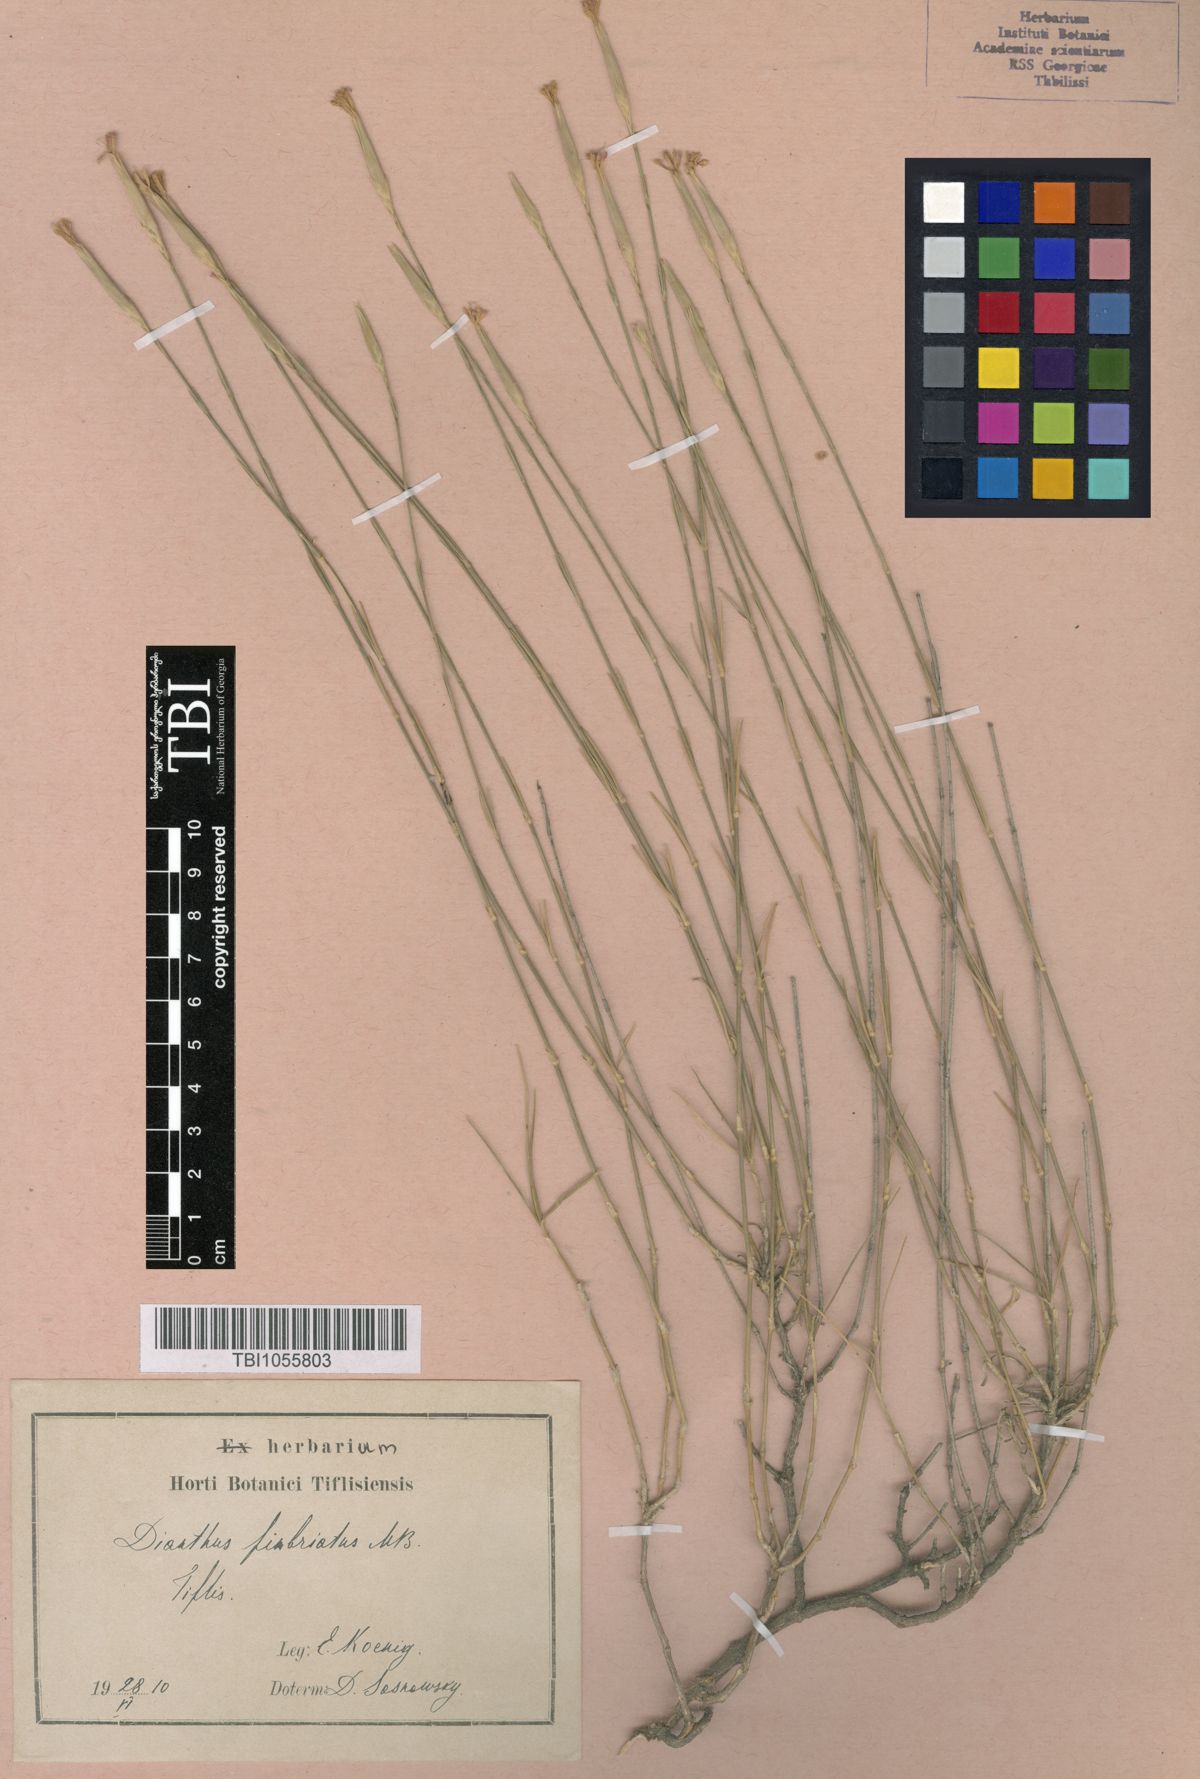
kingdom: Plantae
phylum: Tracheophyta
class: Magnoliopsida
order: Caryophyllales
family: Caryophyllaceae
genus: Dianthus
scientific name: Dianthus orientalis
